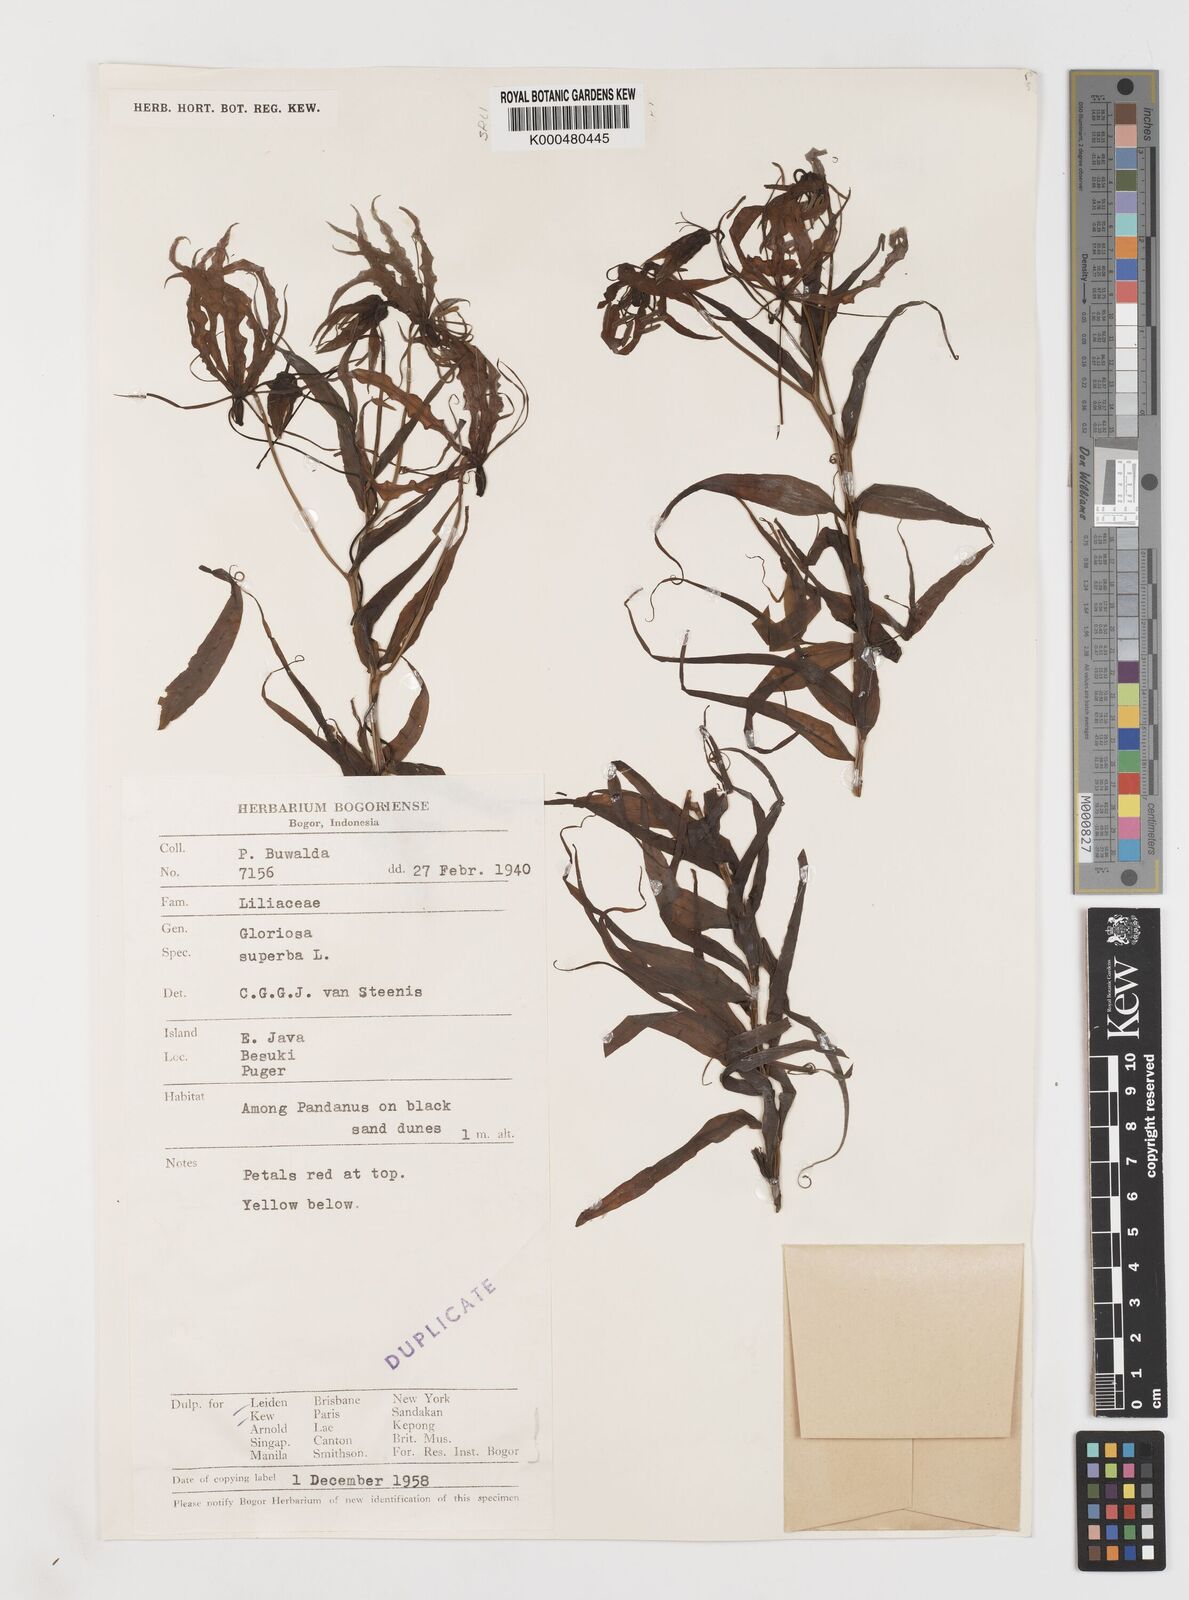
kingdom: Plantae
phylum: Tracheophyta
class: Liliopsida
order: Liliales
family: Colchicaceae
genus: Gloriosa
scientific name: Gloriosa superba
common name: Flame lily
